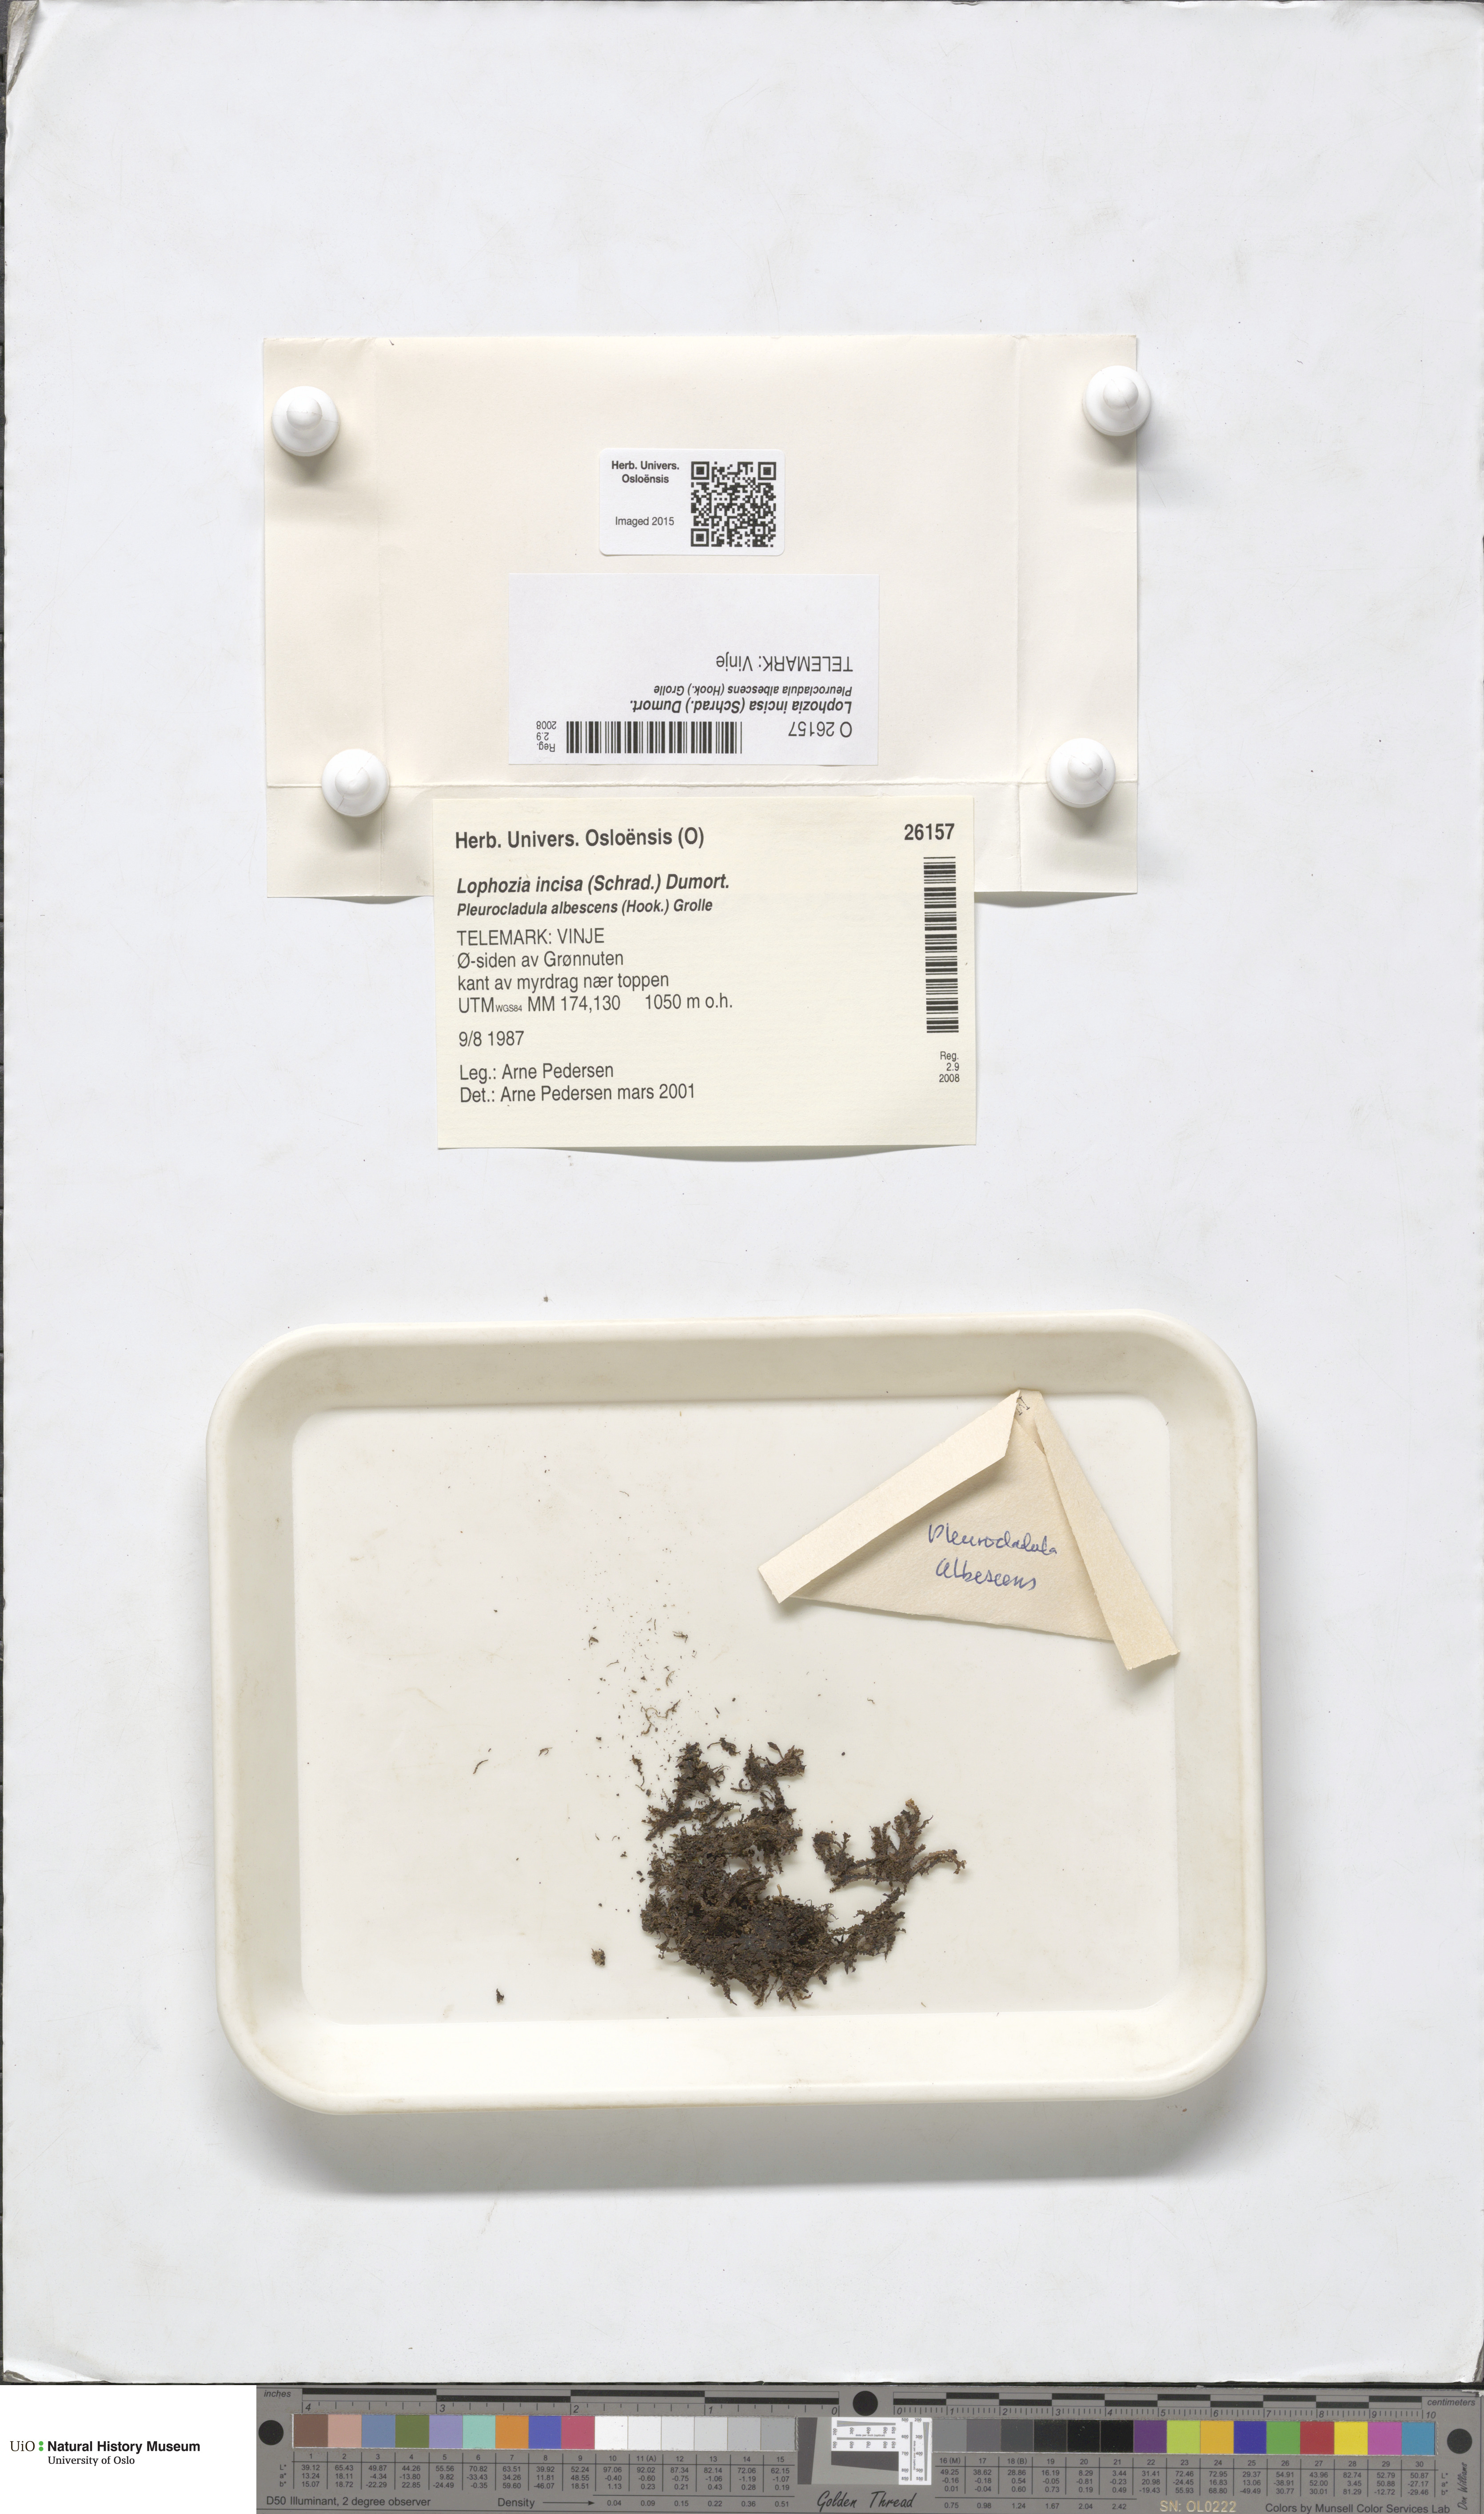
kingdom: Plantae
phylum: Marchantiophyta
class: Jungermanniopsida
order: Jungermanniales
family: Scapaniaceae
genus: Schistochilopsis
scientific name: Schistochilopsis incisa
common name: Jagged notchwort
